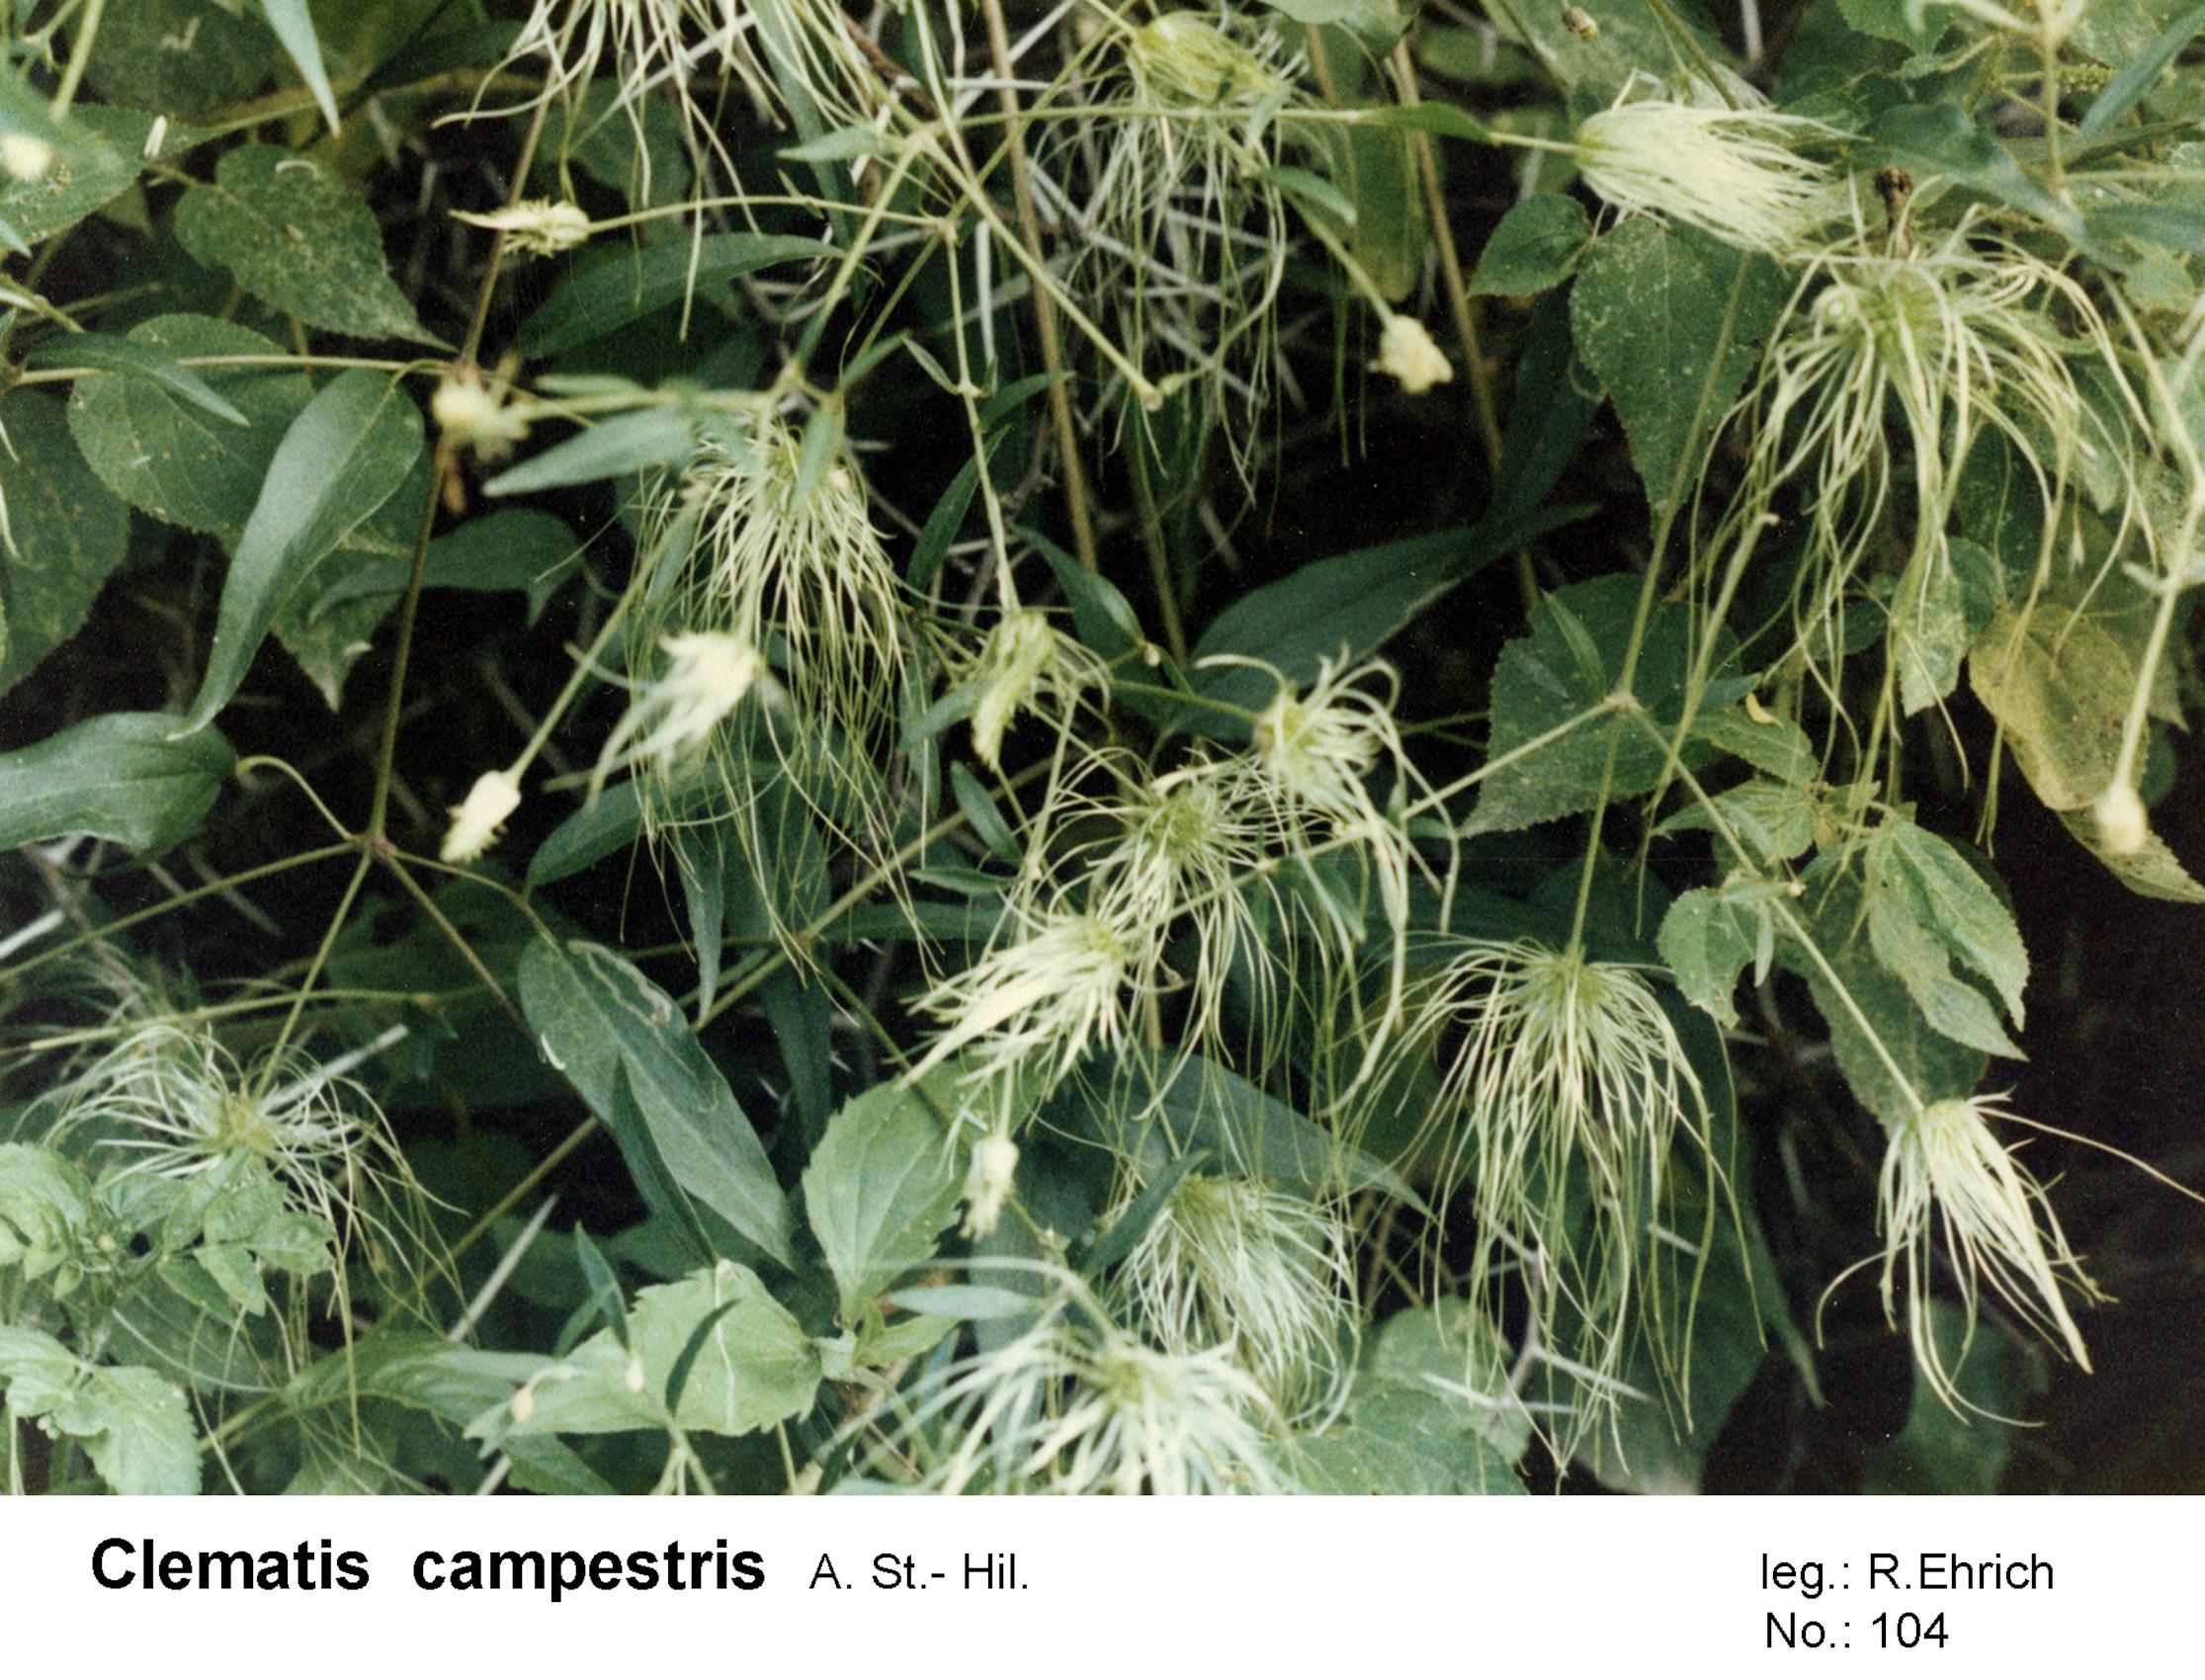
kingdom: Plantae
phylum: Tracheophyta
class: Magnoliopsida
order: Ranunculales
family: Ranunculaceae
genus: Clematis
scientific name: Clematis campestris
